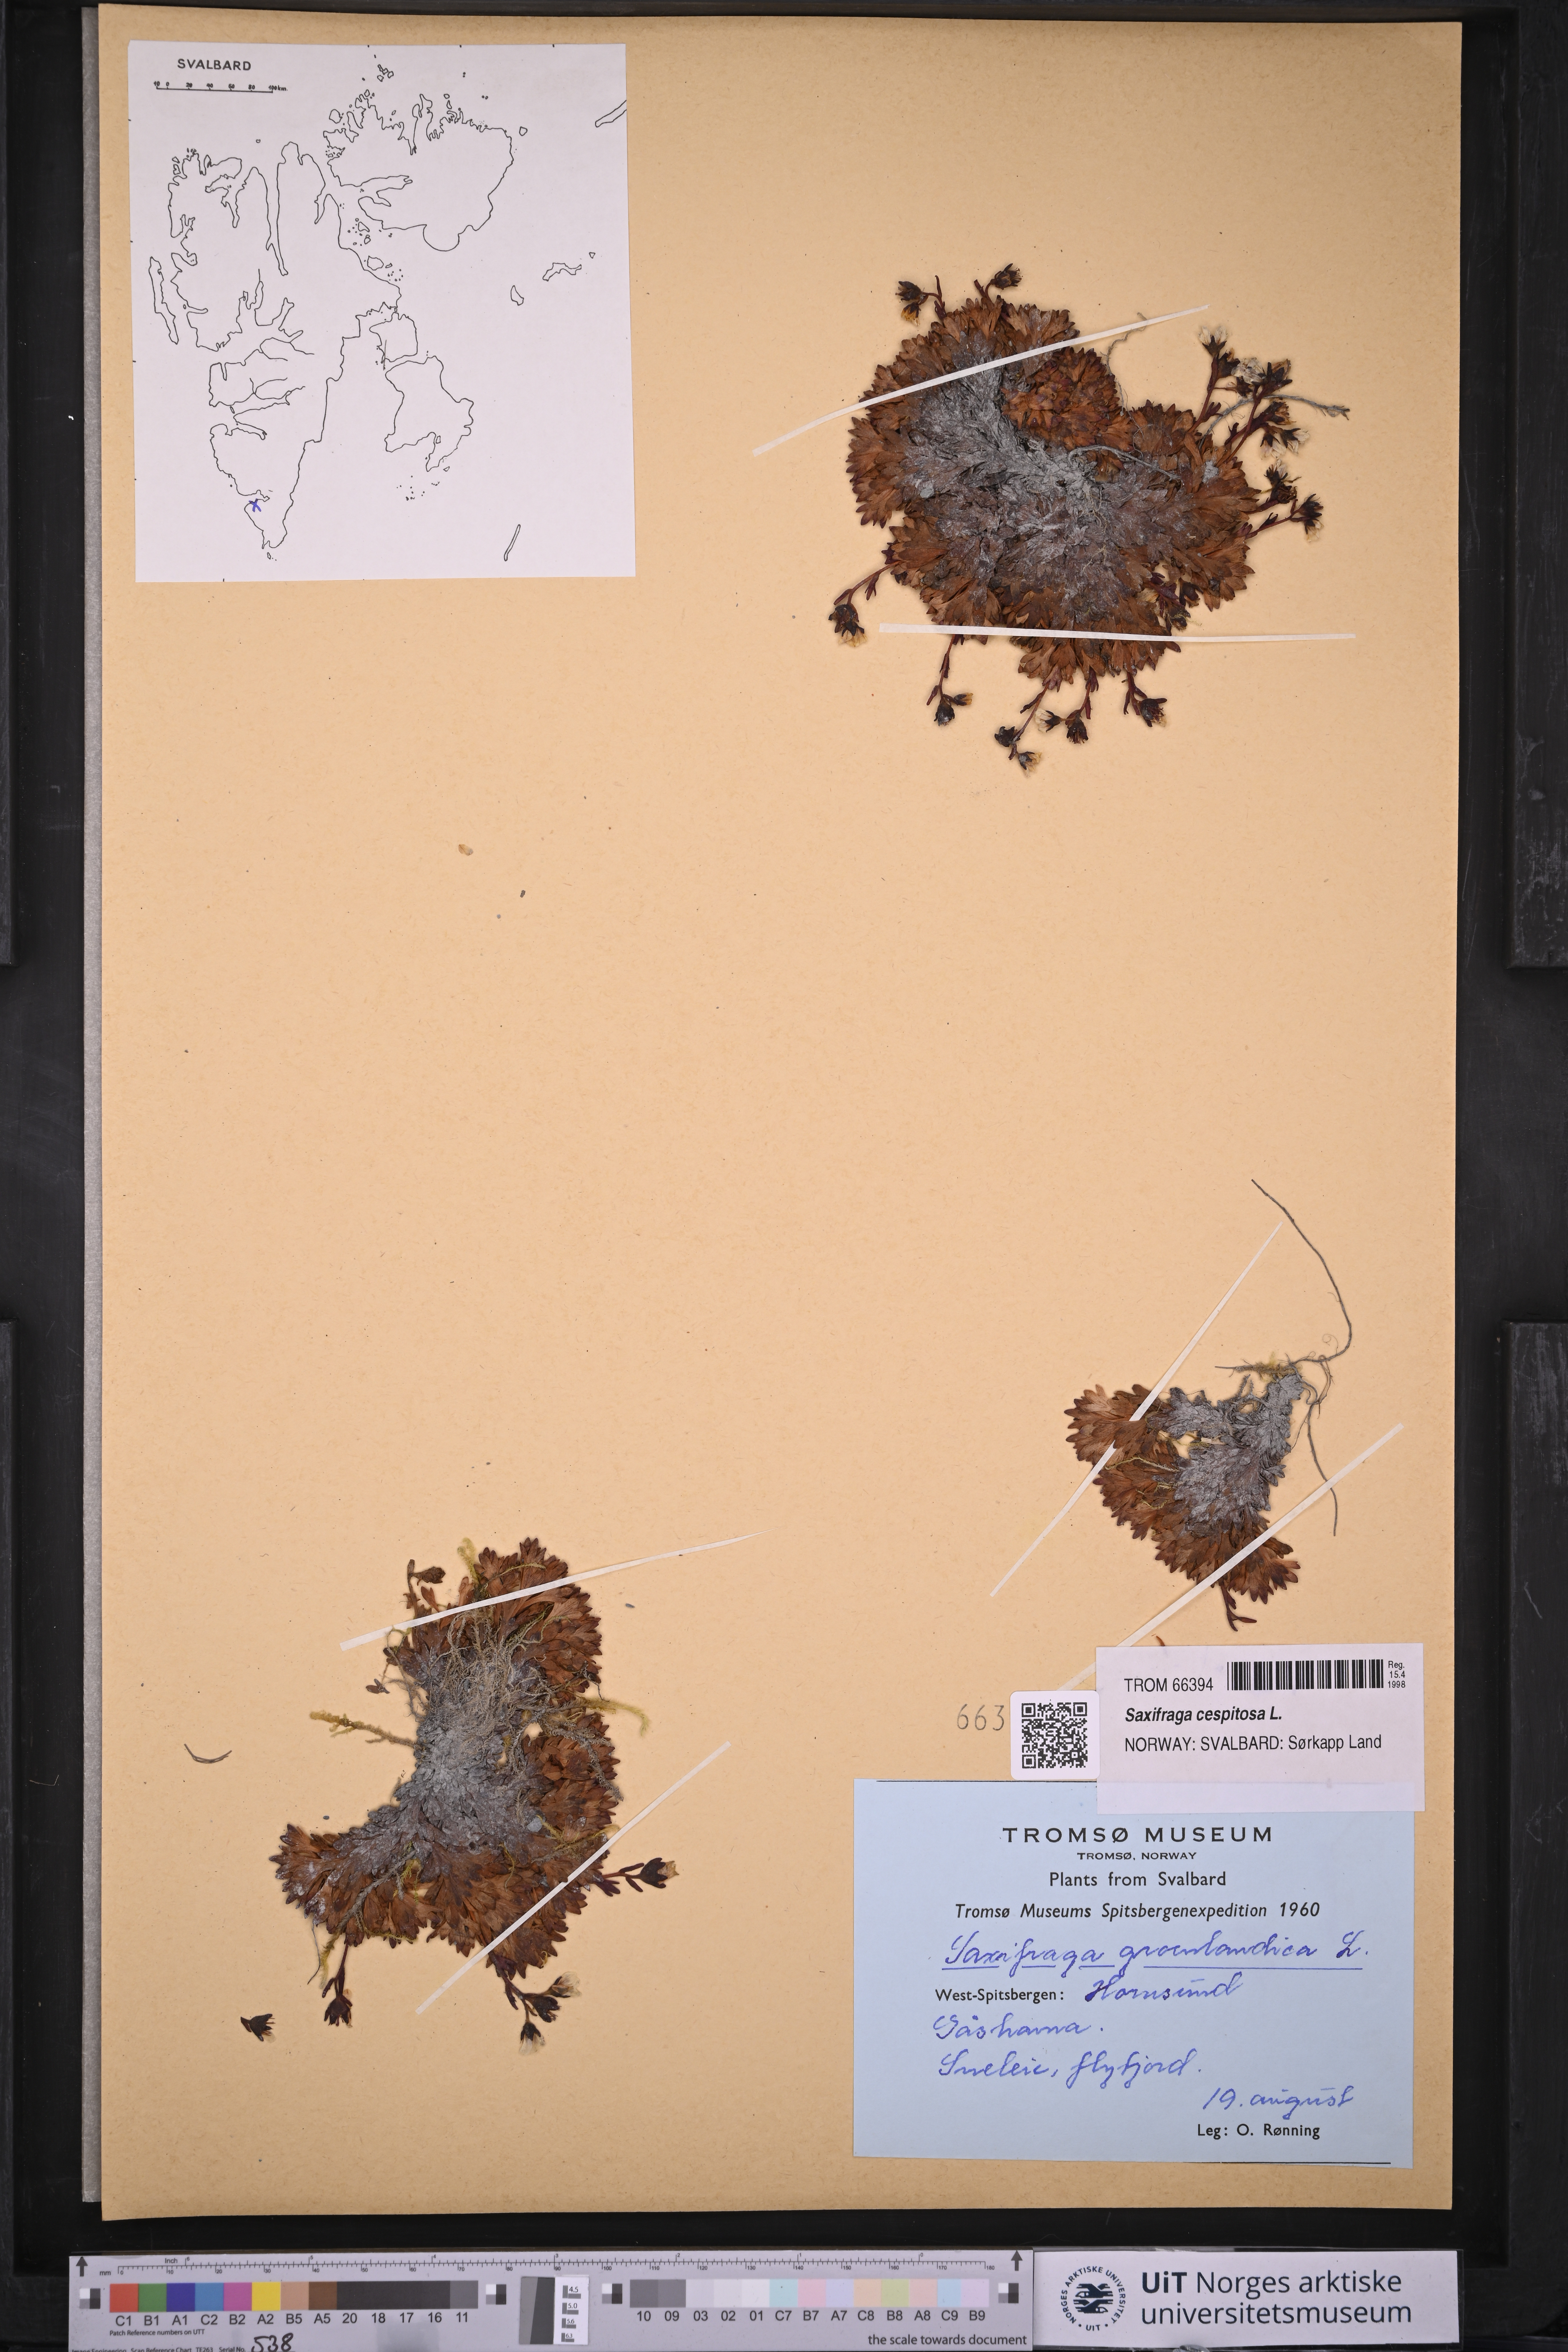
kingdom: Plantae
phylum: Tracheophyta
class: Magnoliopsida
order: Saxifragales
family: Saxifragaceae
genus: Saxifraga
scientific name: Saxifraga cespitosa
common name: Tufted saxifrage
